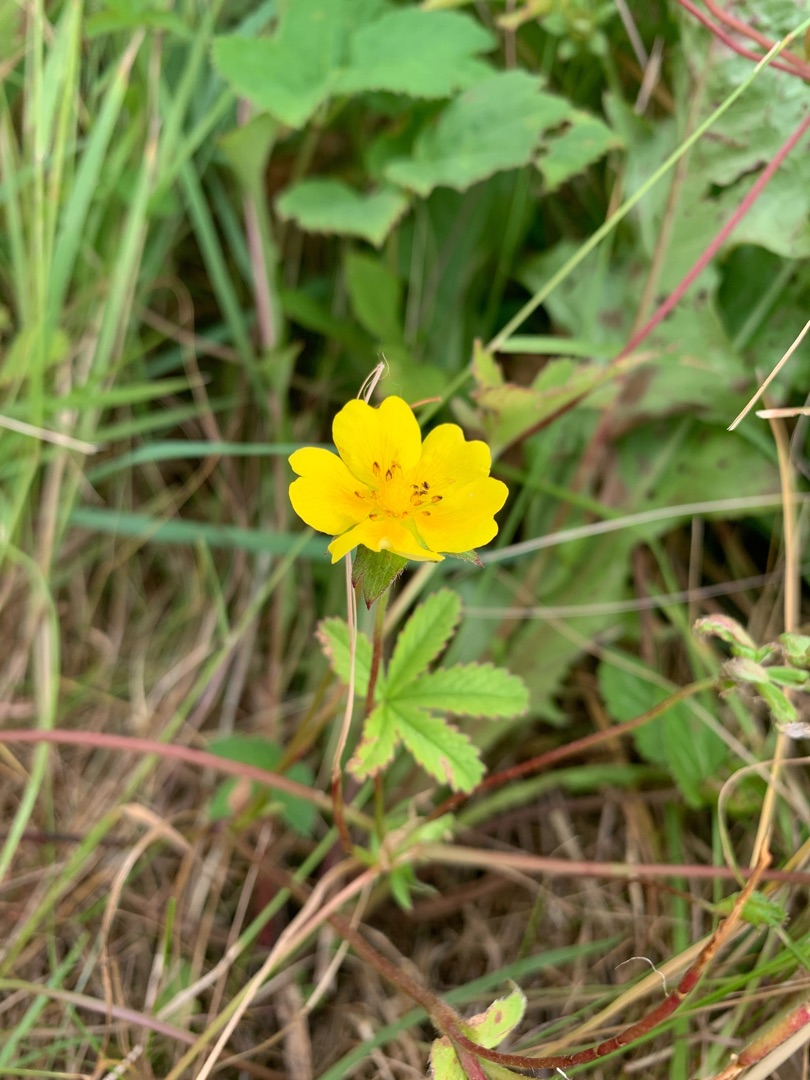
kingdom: Plantae
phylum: Tracheophyta
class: Magnoliopsida
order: Rosales
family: Rosaceae
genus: Potentilla
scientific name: Potentilla reptans
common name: Krybende potentil
